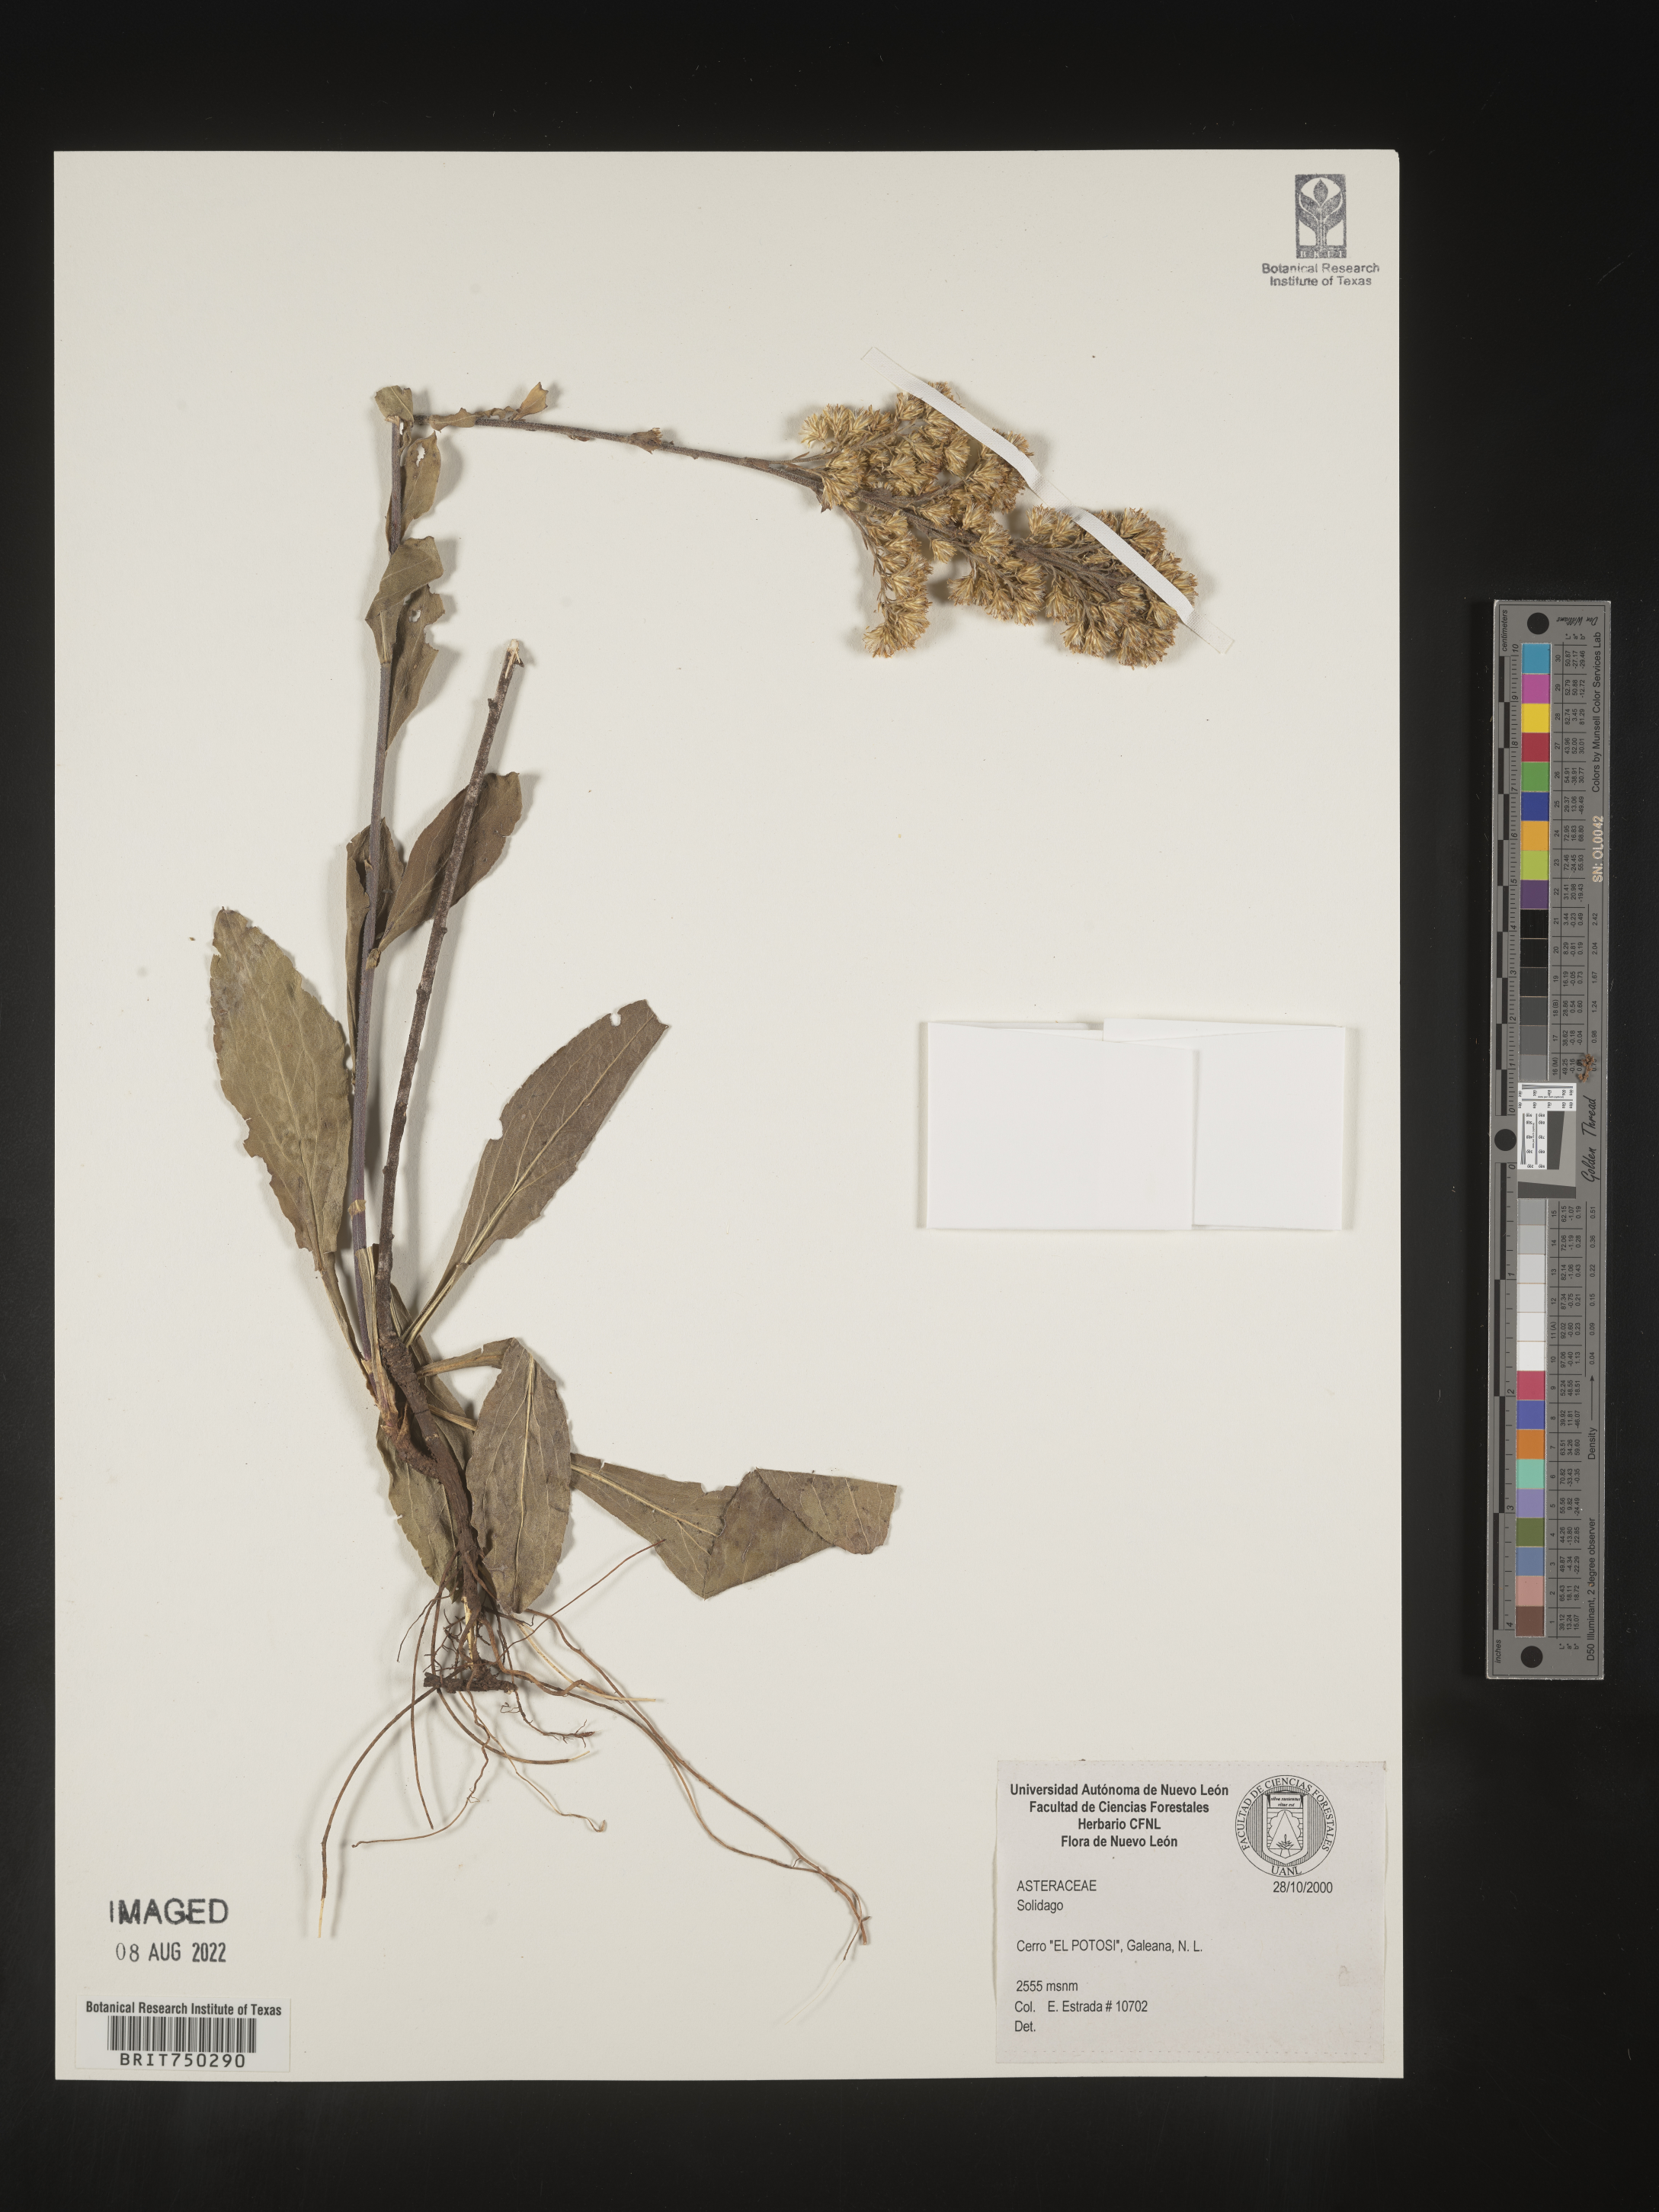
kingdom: Plantae
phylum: Tracheophyta
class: Magnoliopsida
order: Asterales
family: Asteraceae
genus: Solidago
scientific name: Solidago hintoniorum
